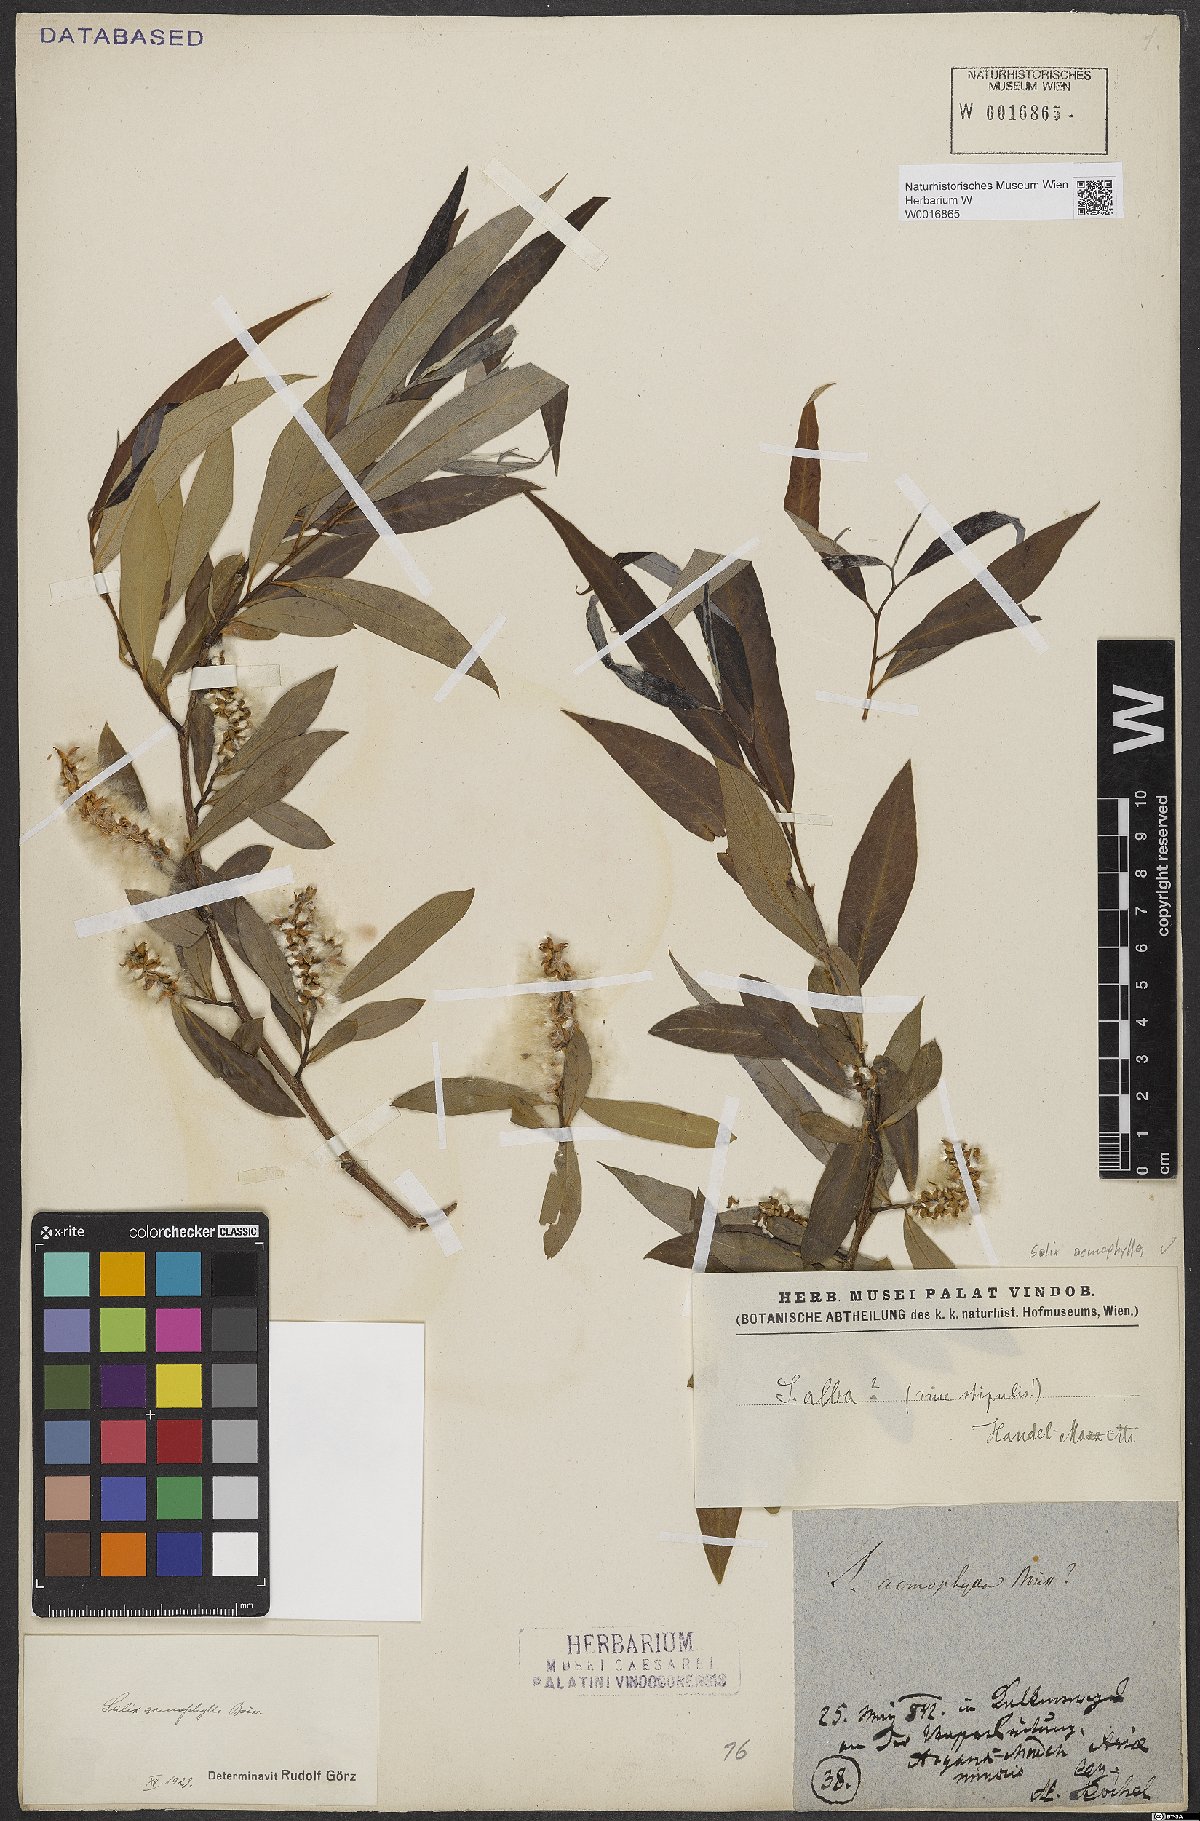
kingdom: Plantae
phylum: Tracheophyta
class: Magnoliopsida
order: Malpighiales
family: Salicaceae
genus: Salix
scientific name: Salix acmophylla
